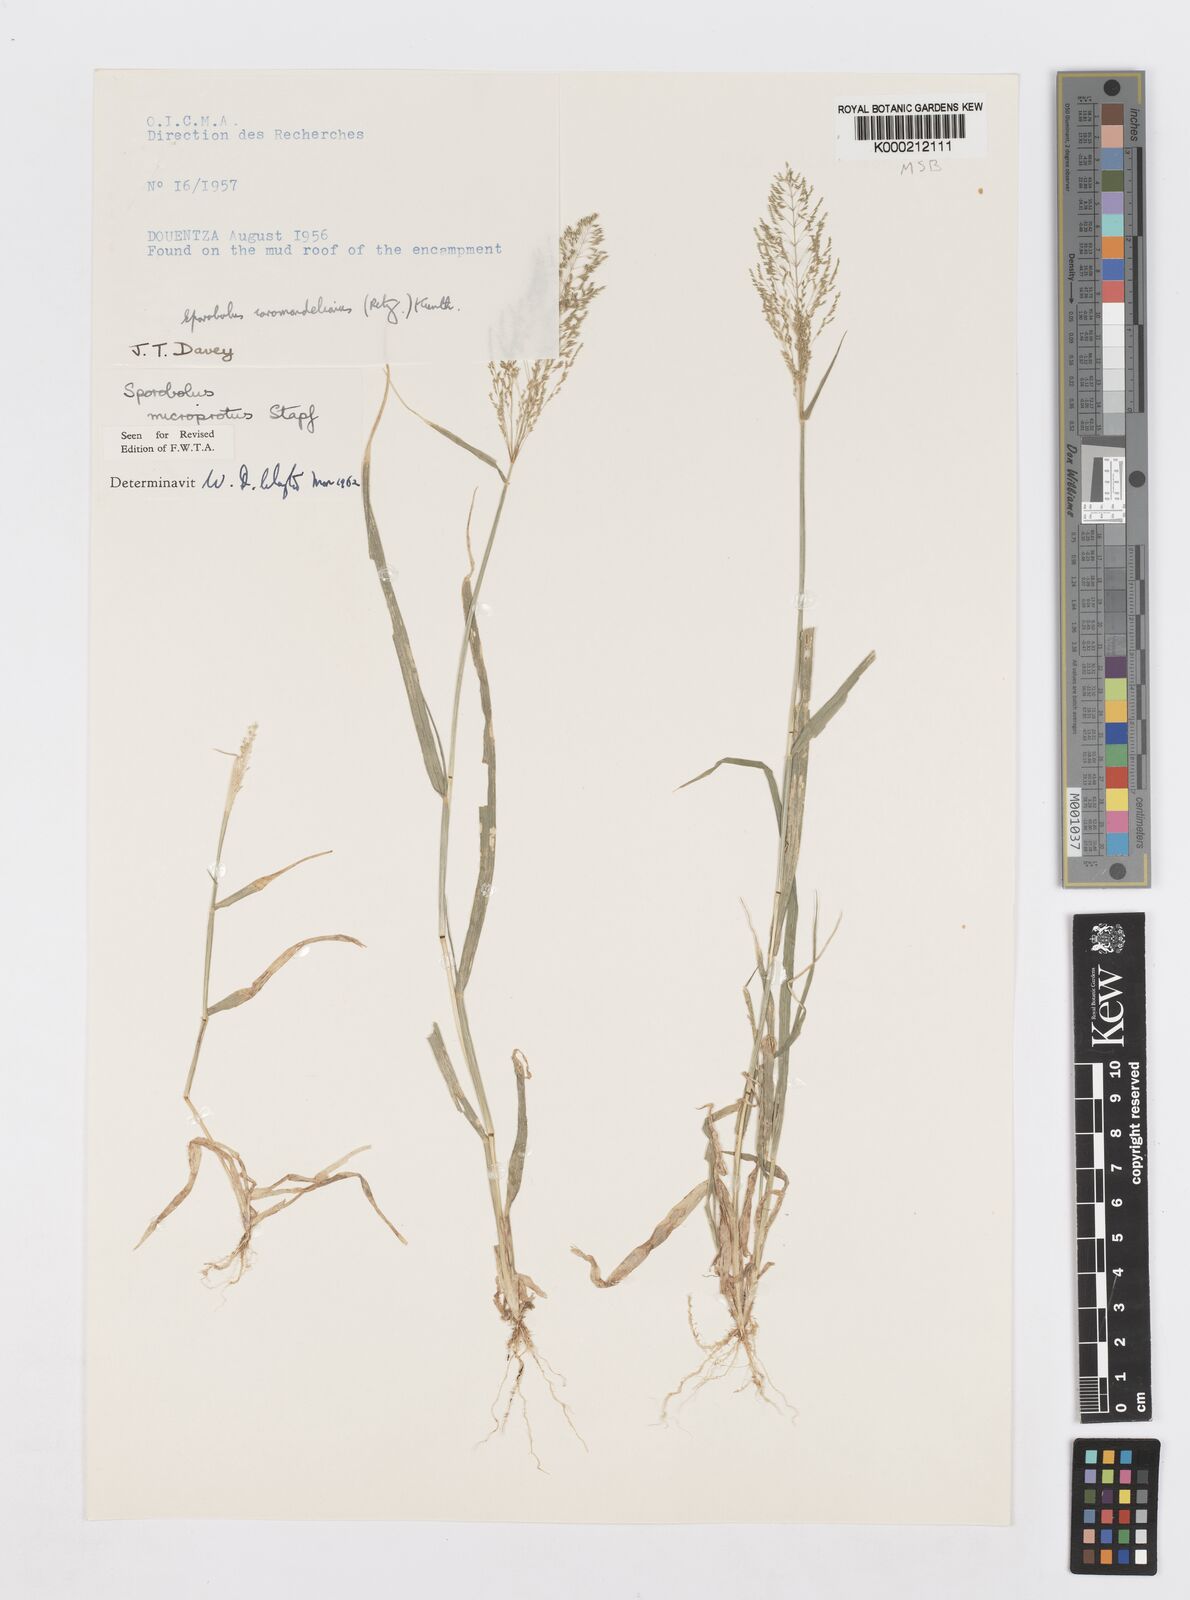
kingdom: Plantae
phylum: Tracheophyta
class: Liliopsida
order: Poales
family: Poaceae
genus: Sporobolus
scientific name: Sporobolus microprotus
